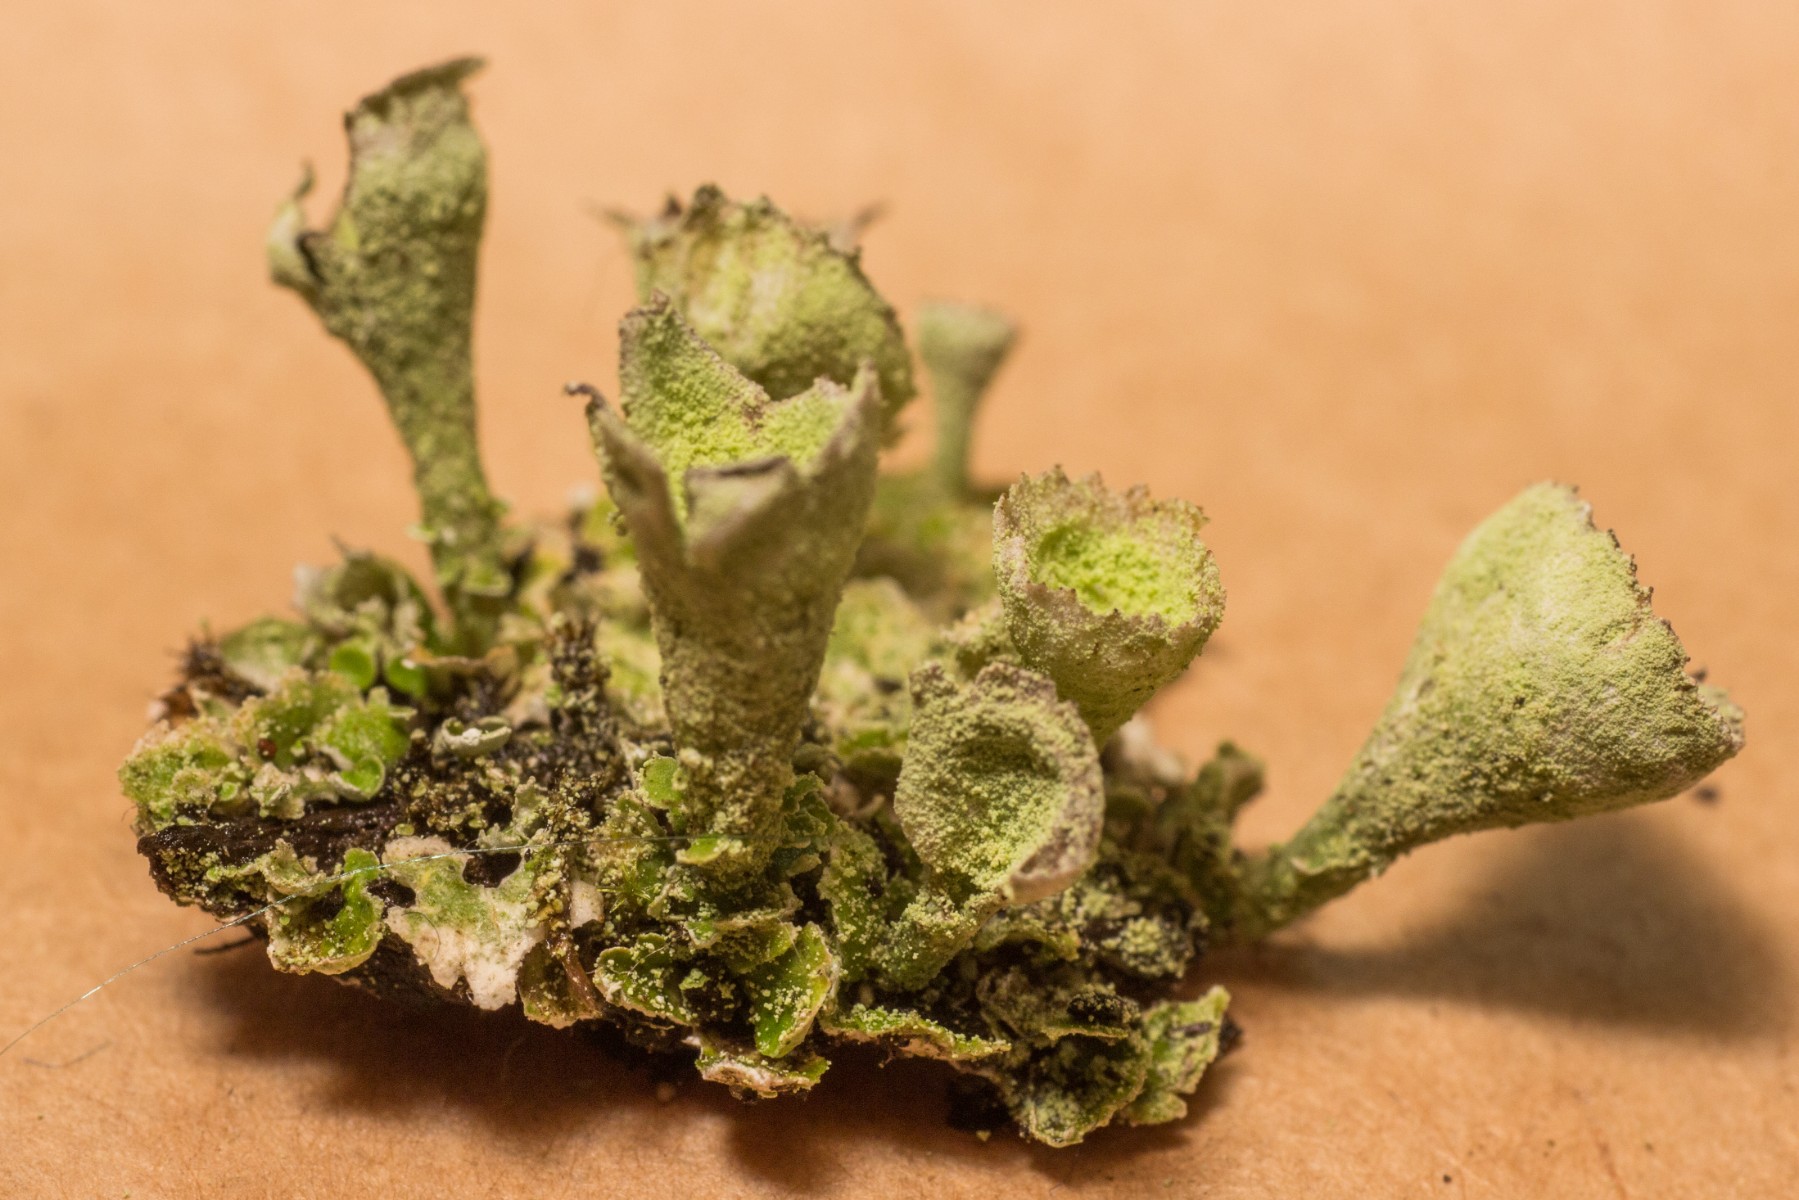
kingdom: Fungi
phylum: Ascomycota
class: Lecanoromycetes
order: Lecanorales
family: Cladoniaceae
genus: Cladonia
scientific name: Cladonia humilis
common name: lav bægerlav
